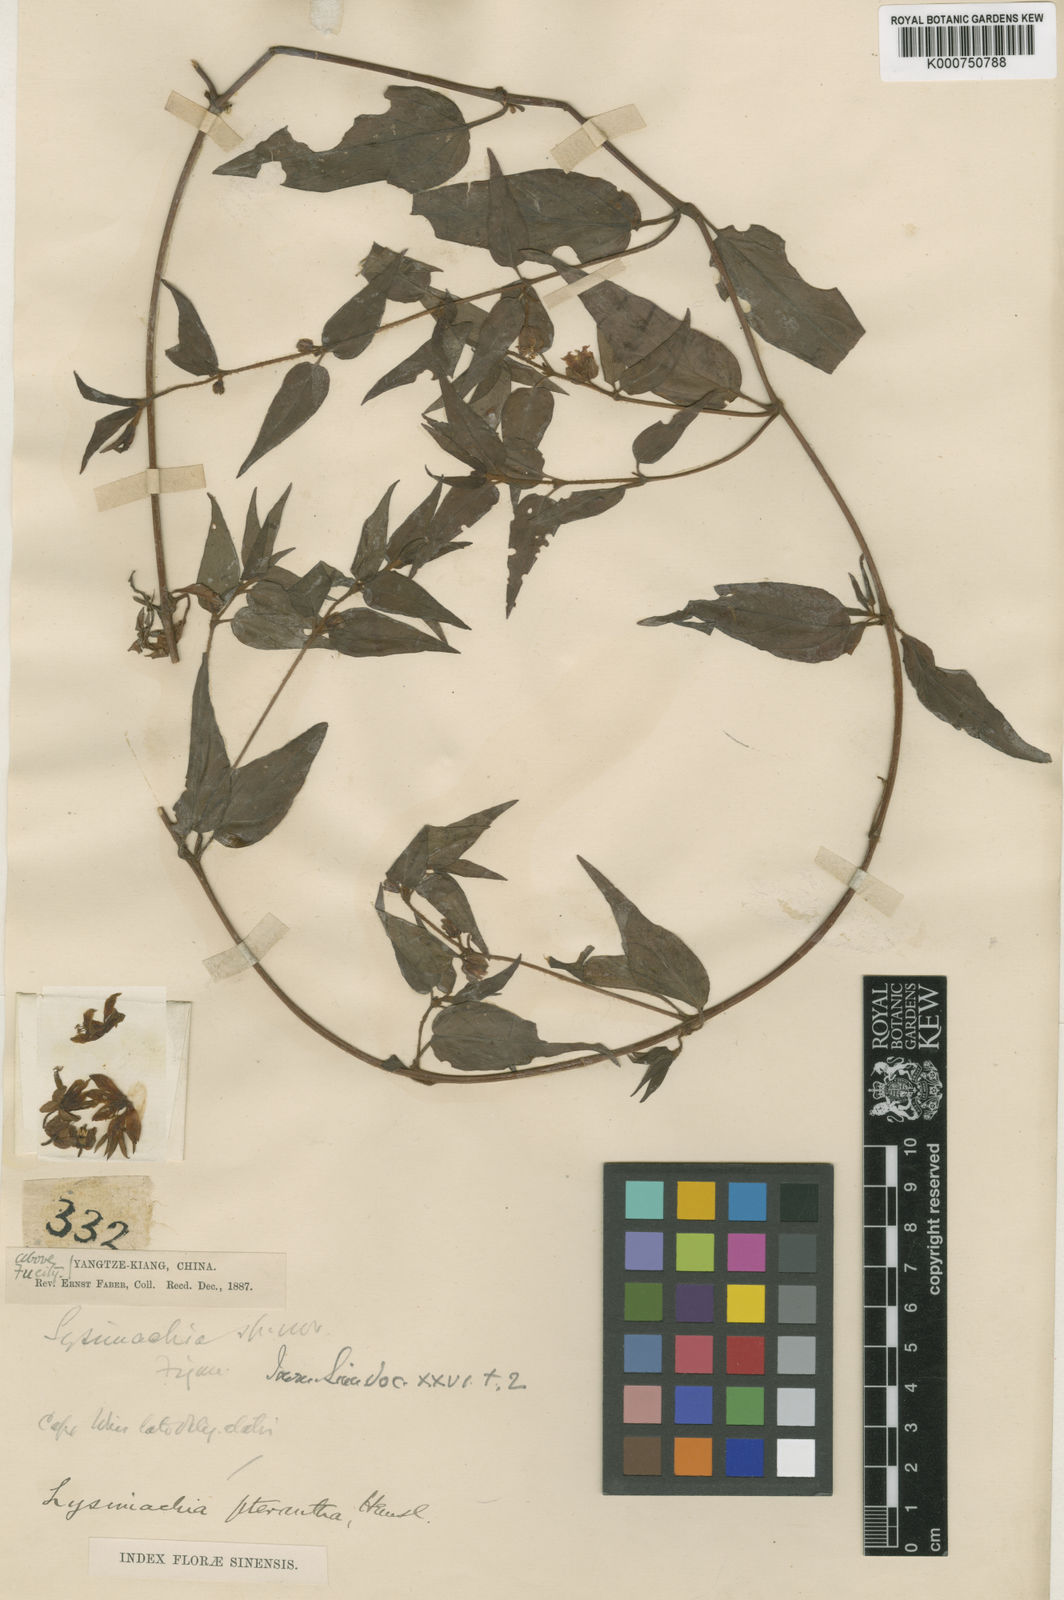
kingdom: Plantae
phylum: Tracheophyta
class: Magnoliopsida
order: Ericales
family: Primulaceae
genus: Lysimachia
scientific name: Lysimachia pterantha
